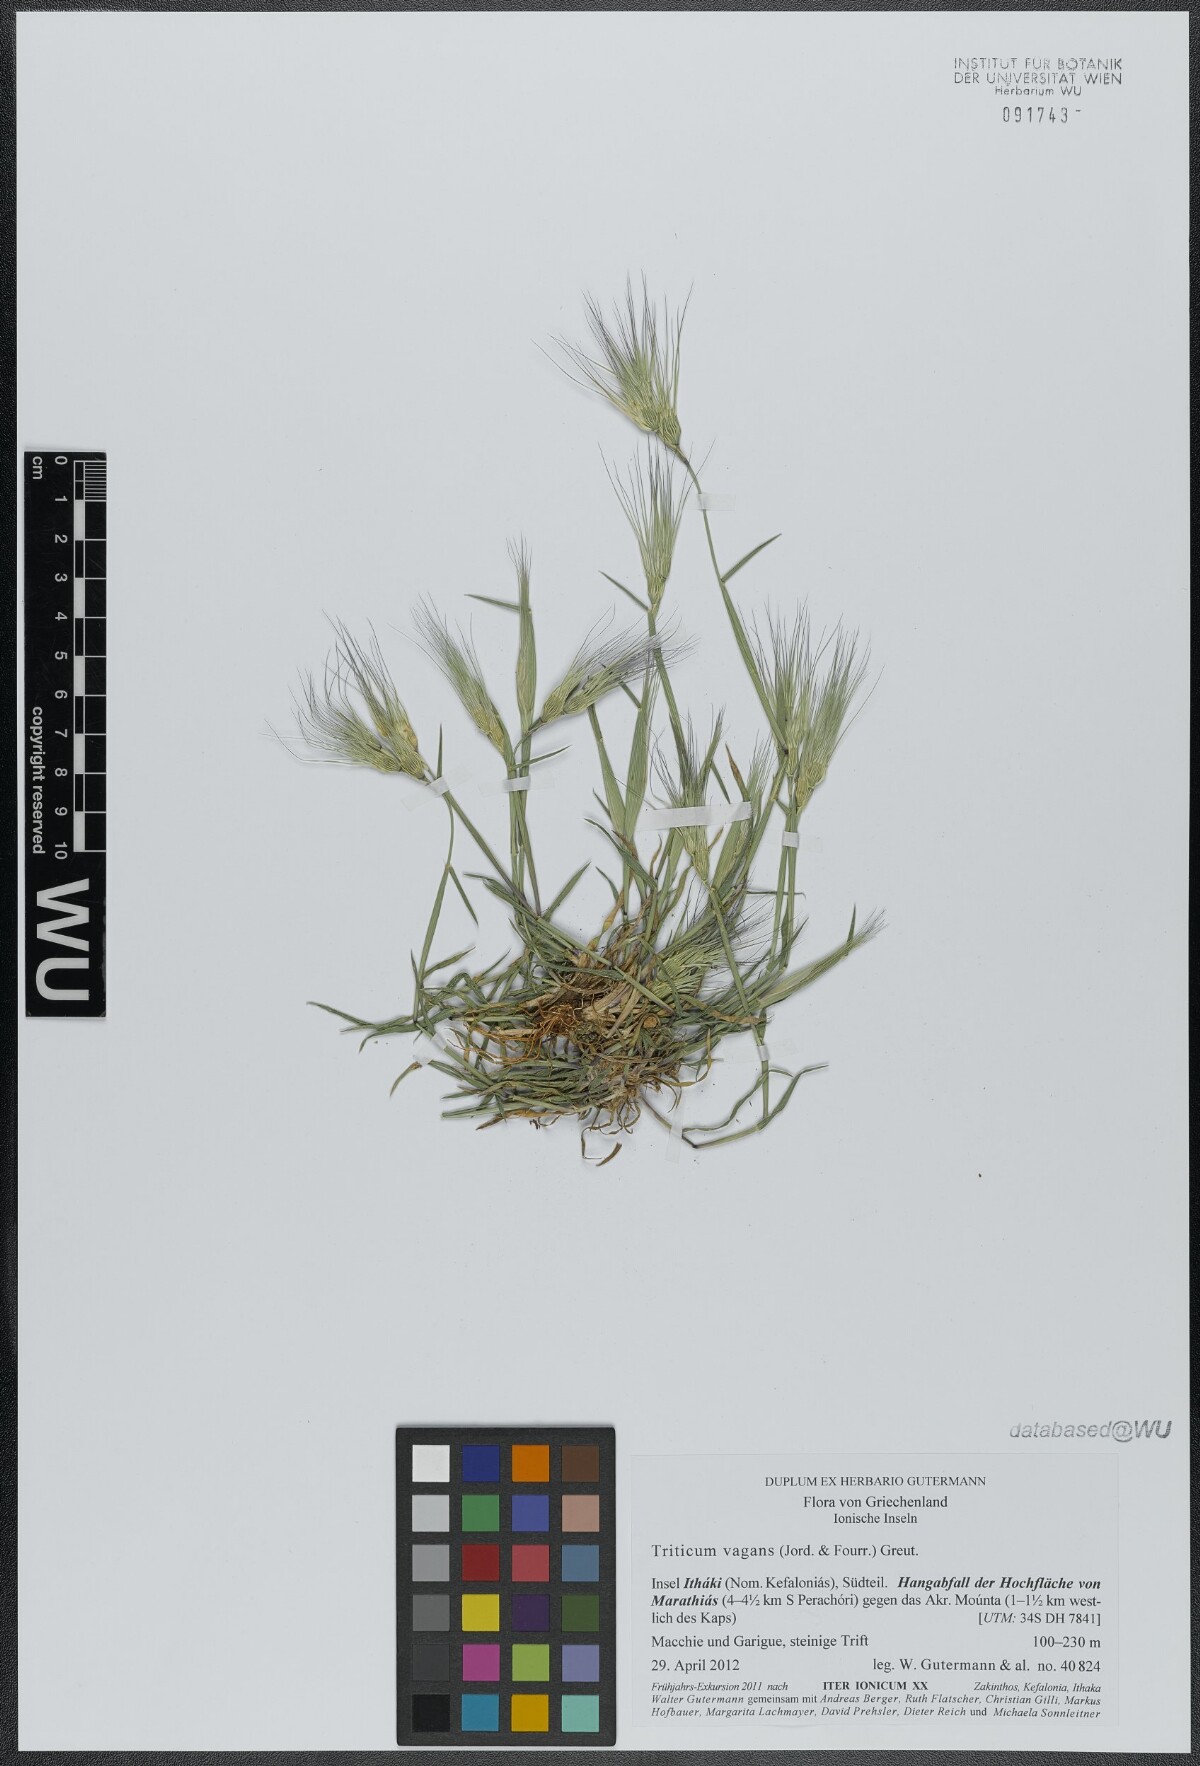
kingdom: Plantae
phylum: Tracheophyta
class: Liliopsida
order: Poales
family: Poaceae
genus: Aegilops
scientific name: Aegilops geniculata
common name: Ovate goat grass
